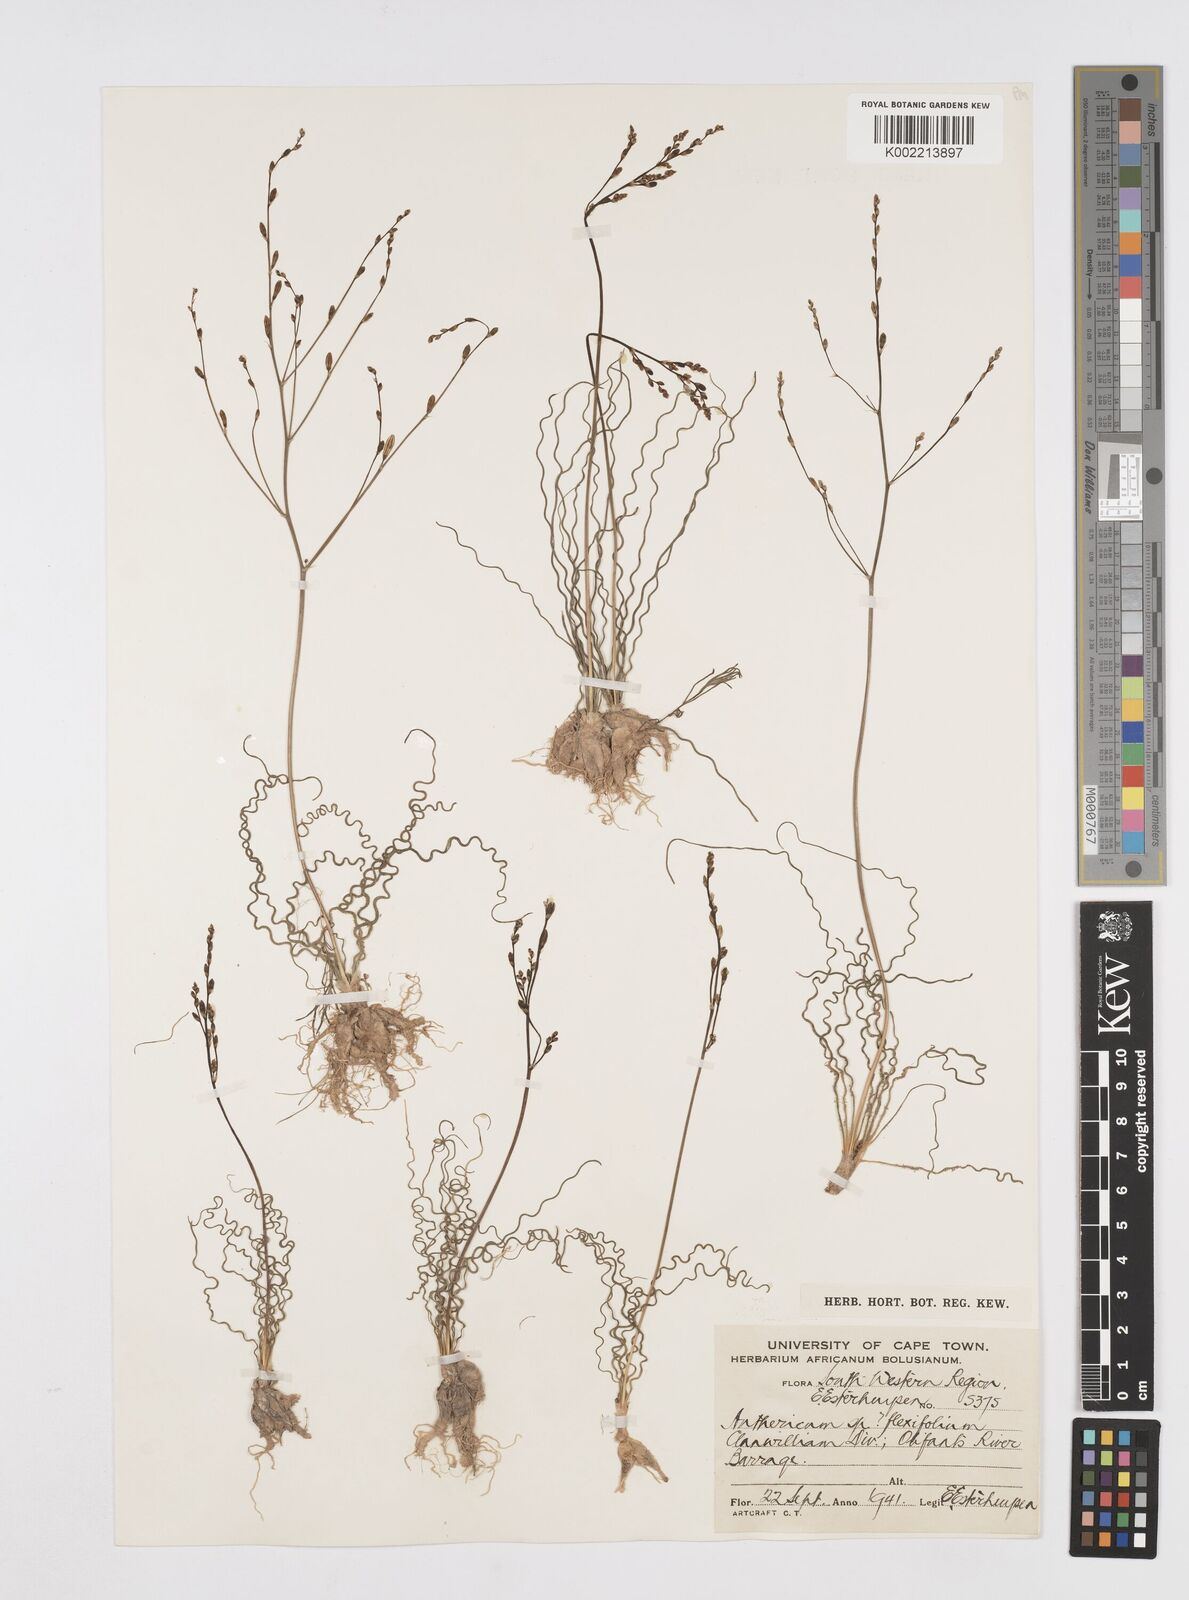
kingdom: Plantae
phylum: Tracheophyta
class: Liliopsida
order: Asparagales
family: Asphodelaceae
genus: Trachyandra
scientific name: Trachyandra flexifolia
